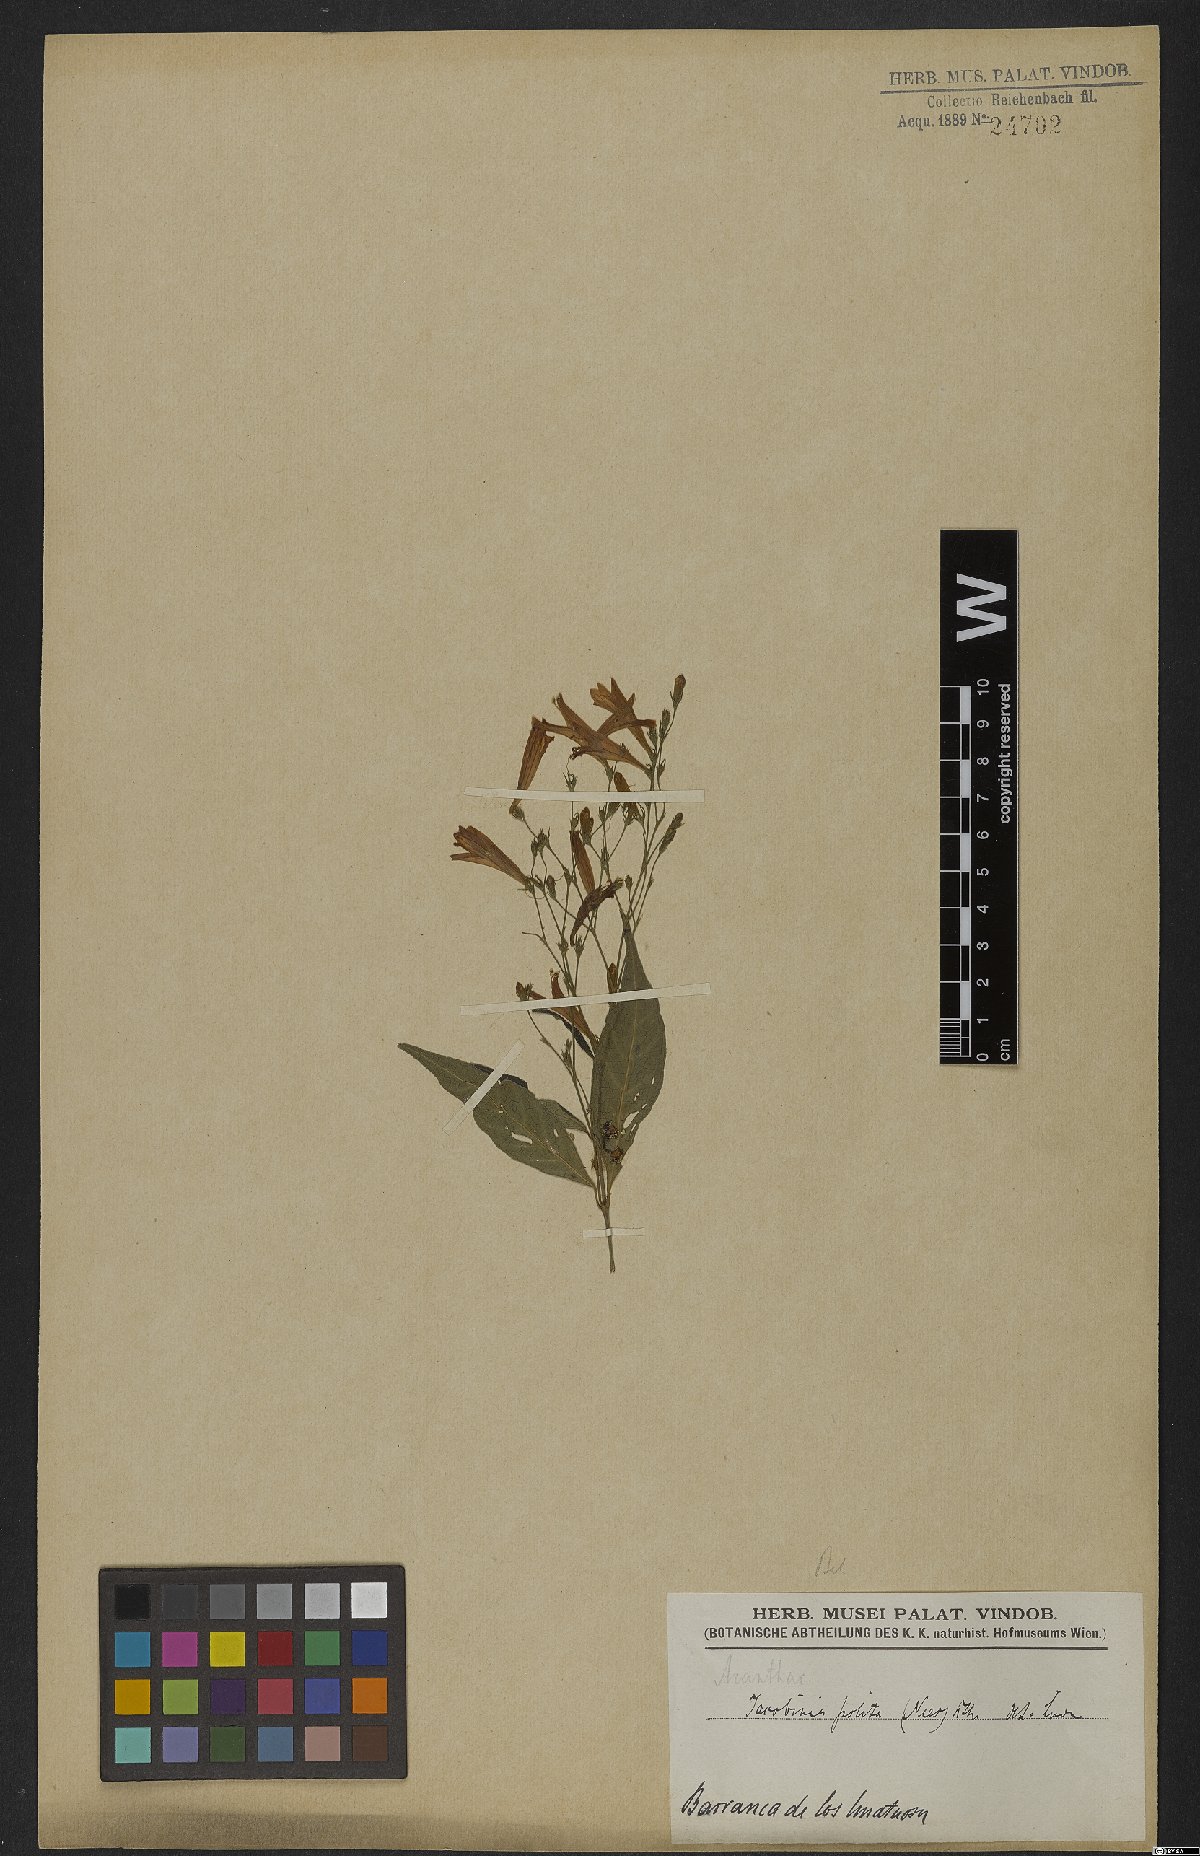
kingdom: Plantae
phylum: Tracheophyta
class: Magnoliopsida
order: Lamiales
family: Acanthaceae
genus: Justicia
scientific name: Justicia polita
